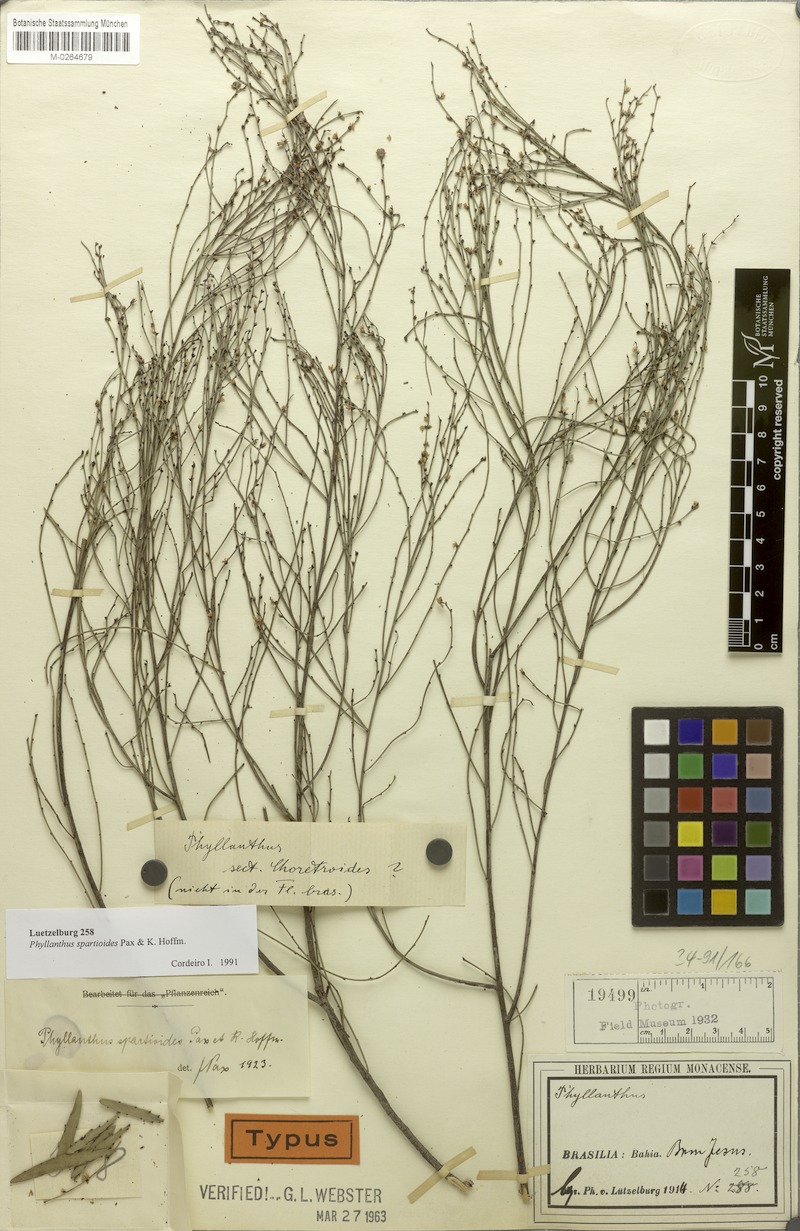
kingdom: Plantae
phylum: Tracheophyta
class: Magnoliopsida
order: Malpighiales
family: Phyllanthaceae
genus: Phyllanthus
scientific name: Phyllanthus spartioides
